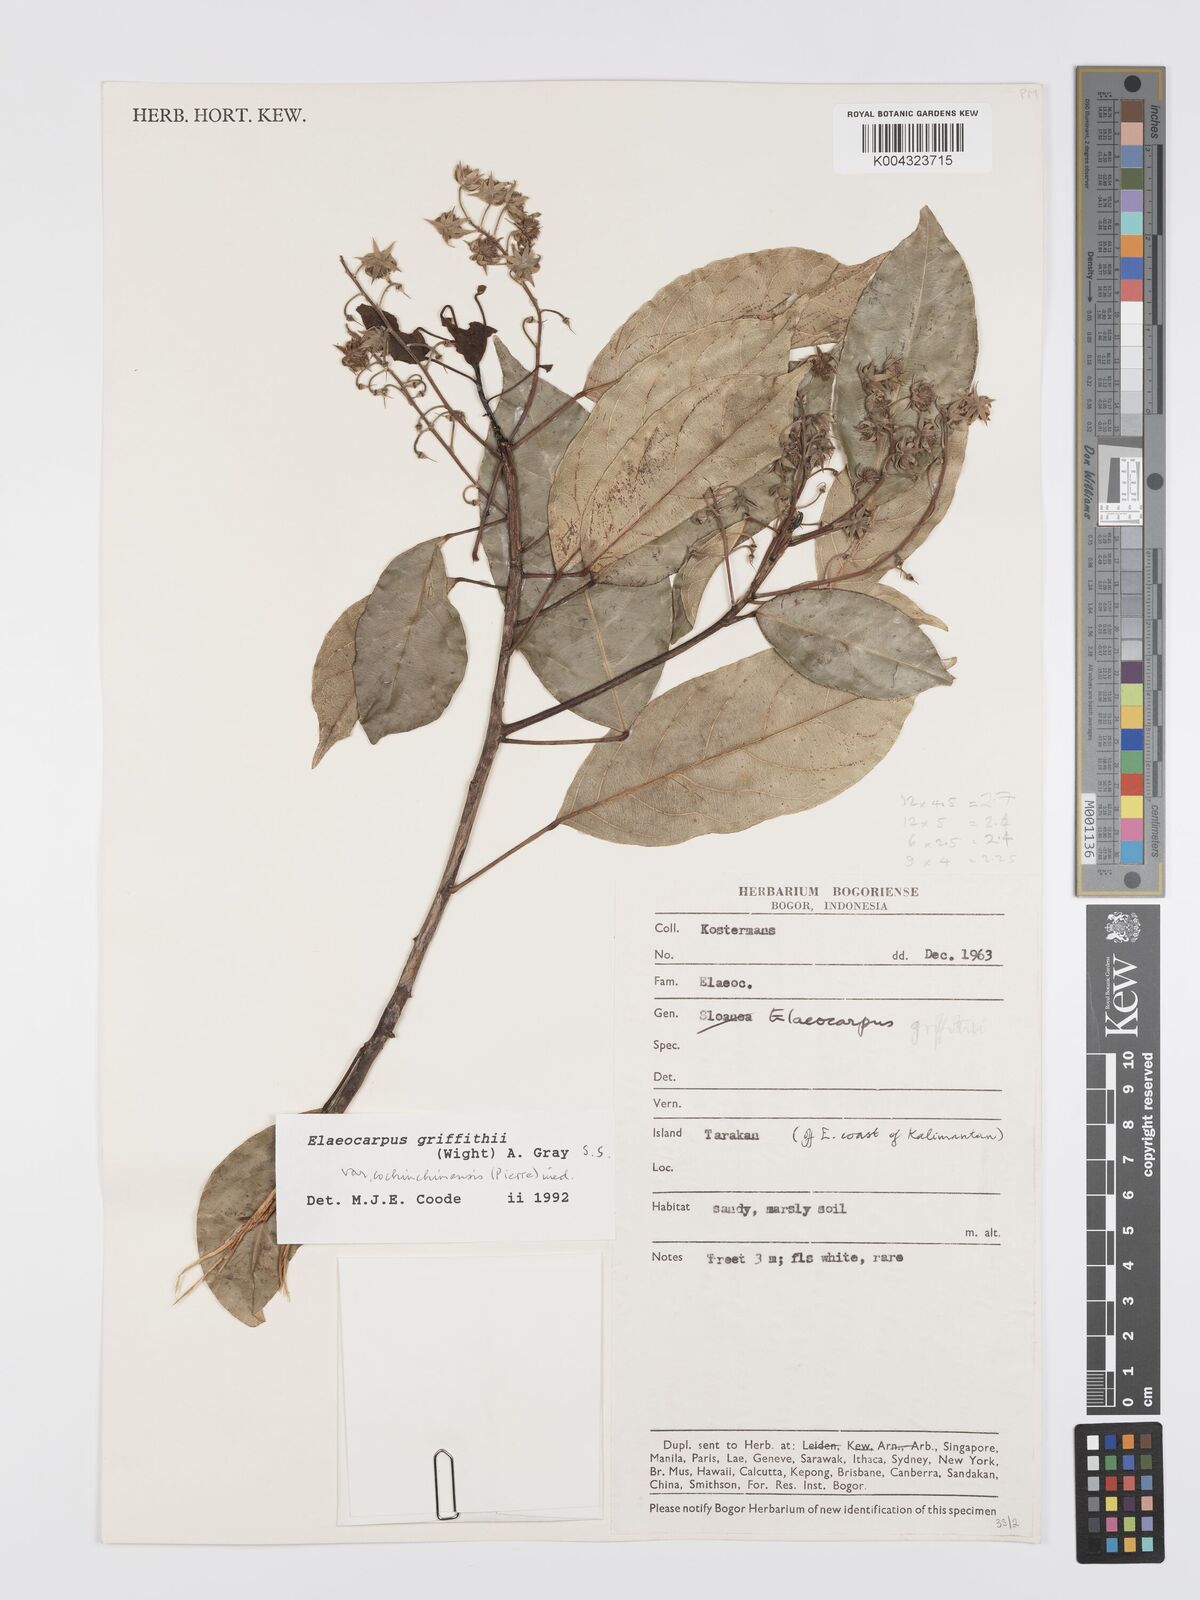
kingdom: Plantae
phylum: Tracheophyta
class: Magnoliopsida
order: Oxalidales
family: Elaeocarpaceae
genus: Elaeocarpus
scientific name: Elaeocarpus griffithii
